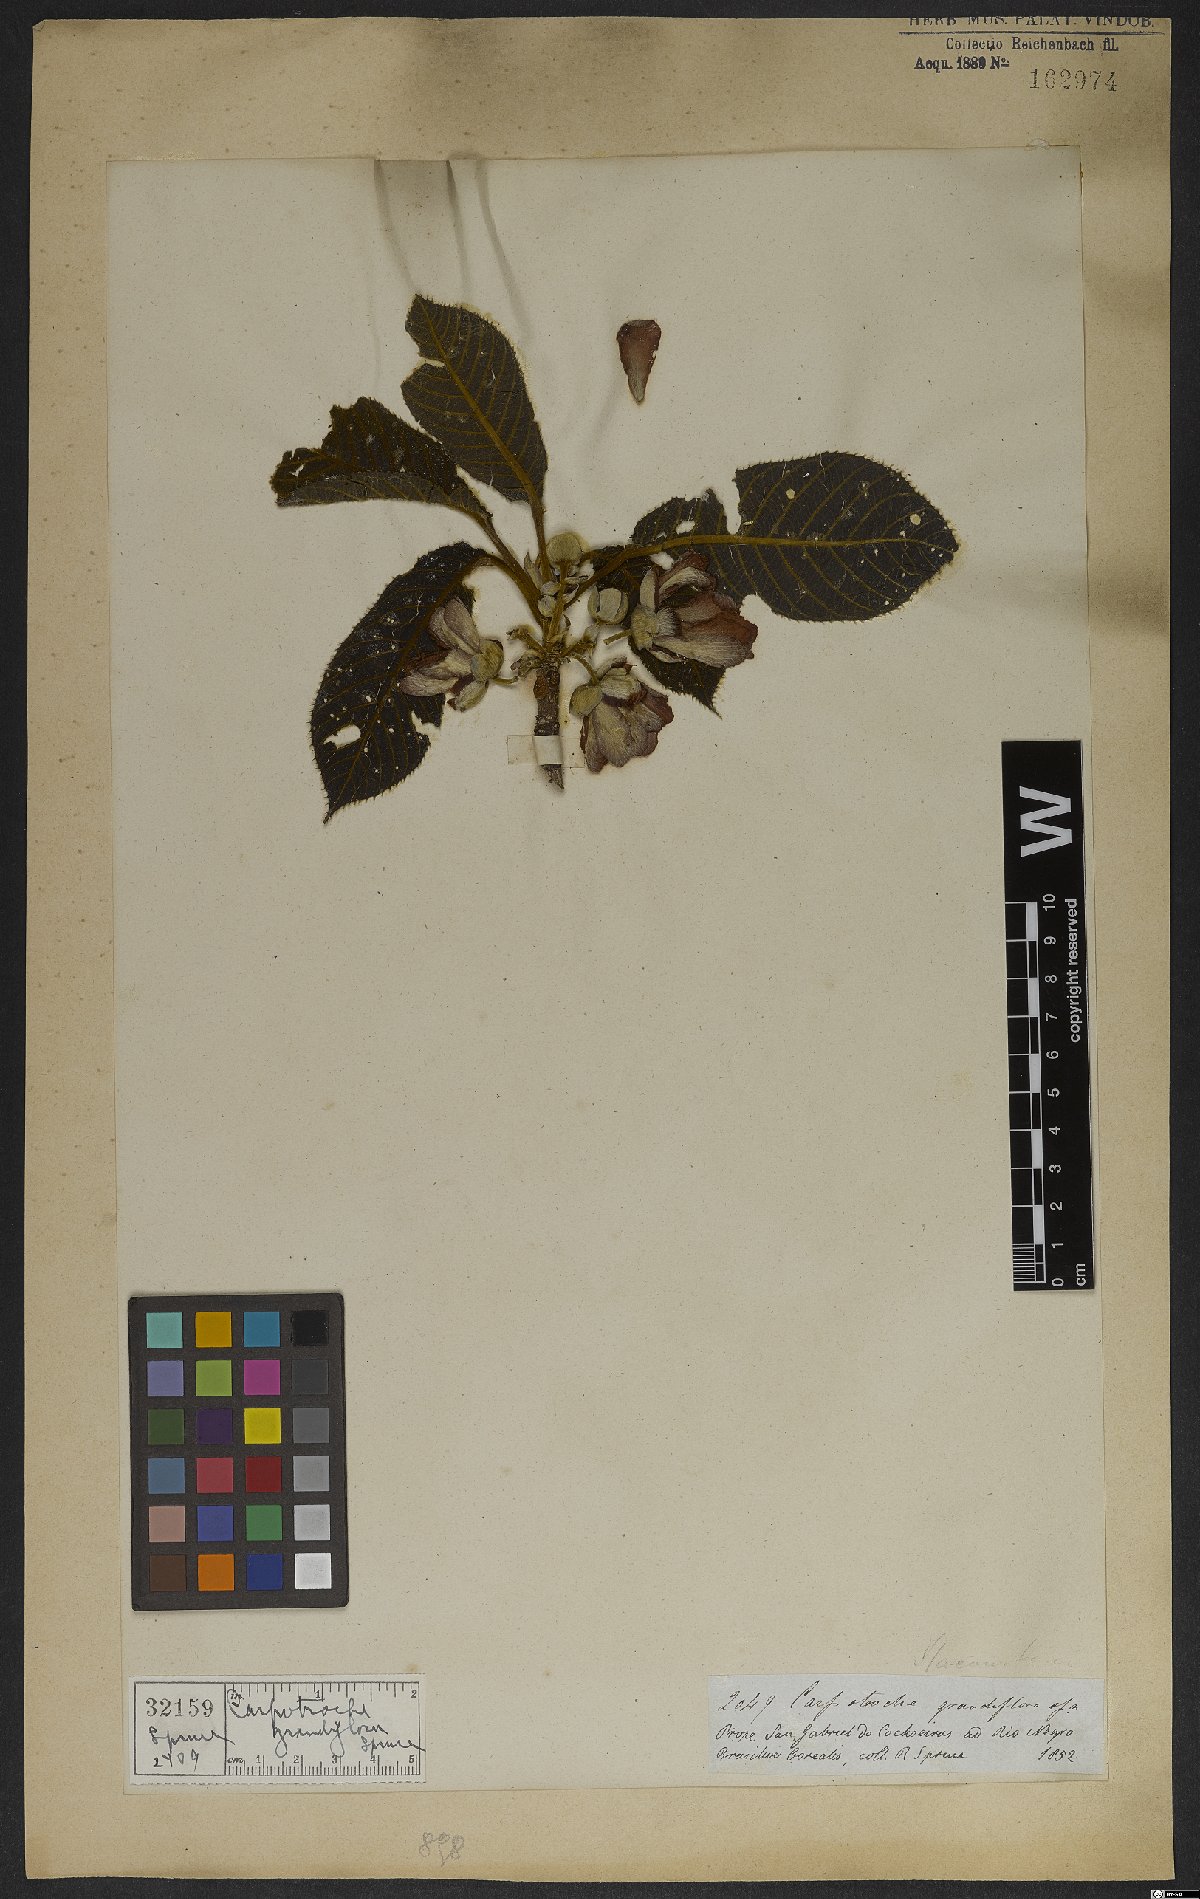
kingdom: Plantae
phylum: Tracheophyta
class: Magnoliopsida
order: Malpighiales
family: Achariaceae
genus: Carpotroche
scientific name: Carpotroche grandiflora
